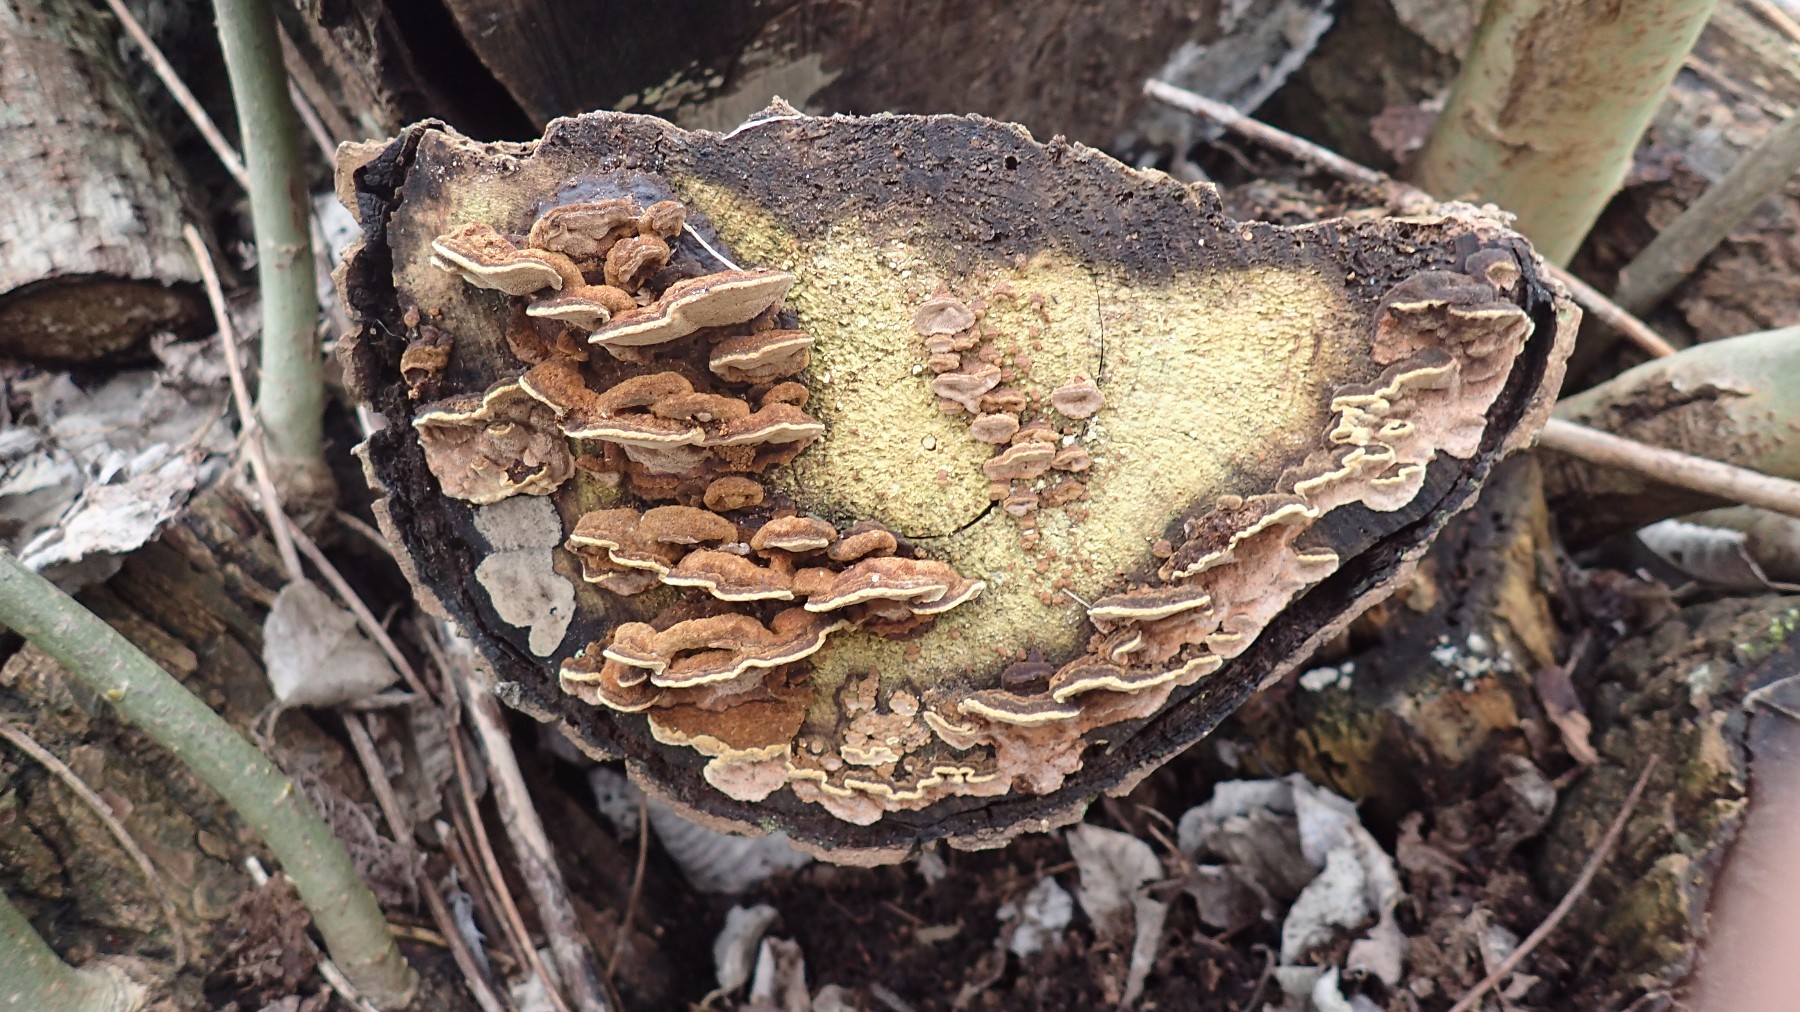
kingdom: Fungi
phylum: Basidiomycota
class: Agaricomycetes
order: Hymenochaetales
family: Hymenochaetaceae
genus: Phellinopsis
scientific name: Phellinopsis conchata
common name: pile-ildporesvamp
